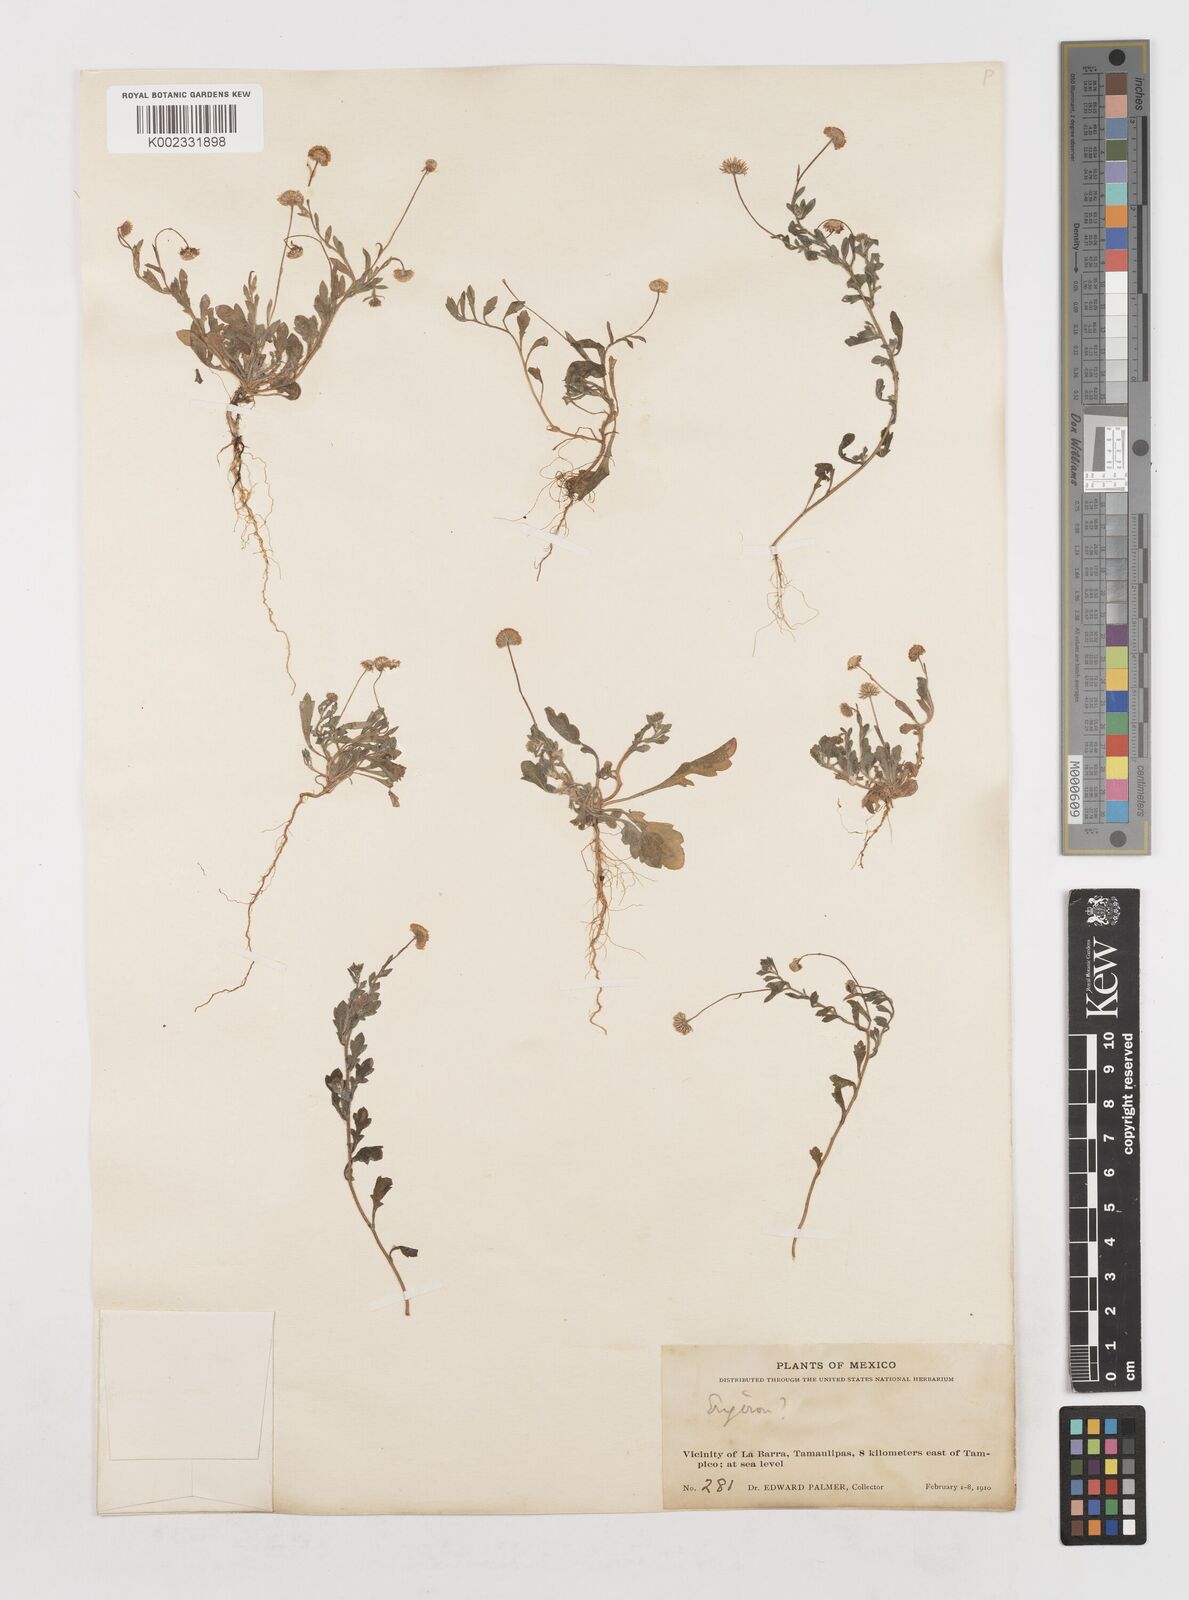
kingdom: Plantae
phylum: Tracheophyta
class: Magnoliopsida
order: Asterales
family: Asteraceae
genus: Erigeron
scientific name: Erigeron
